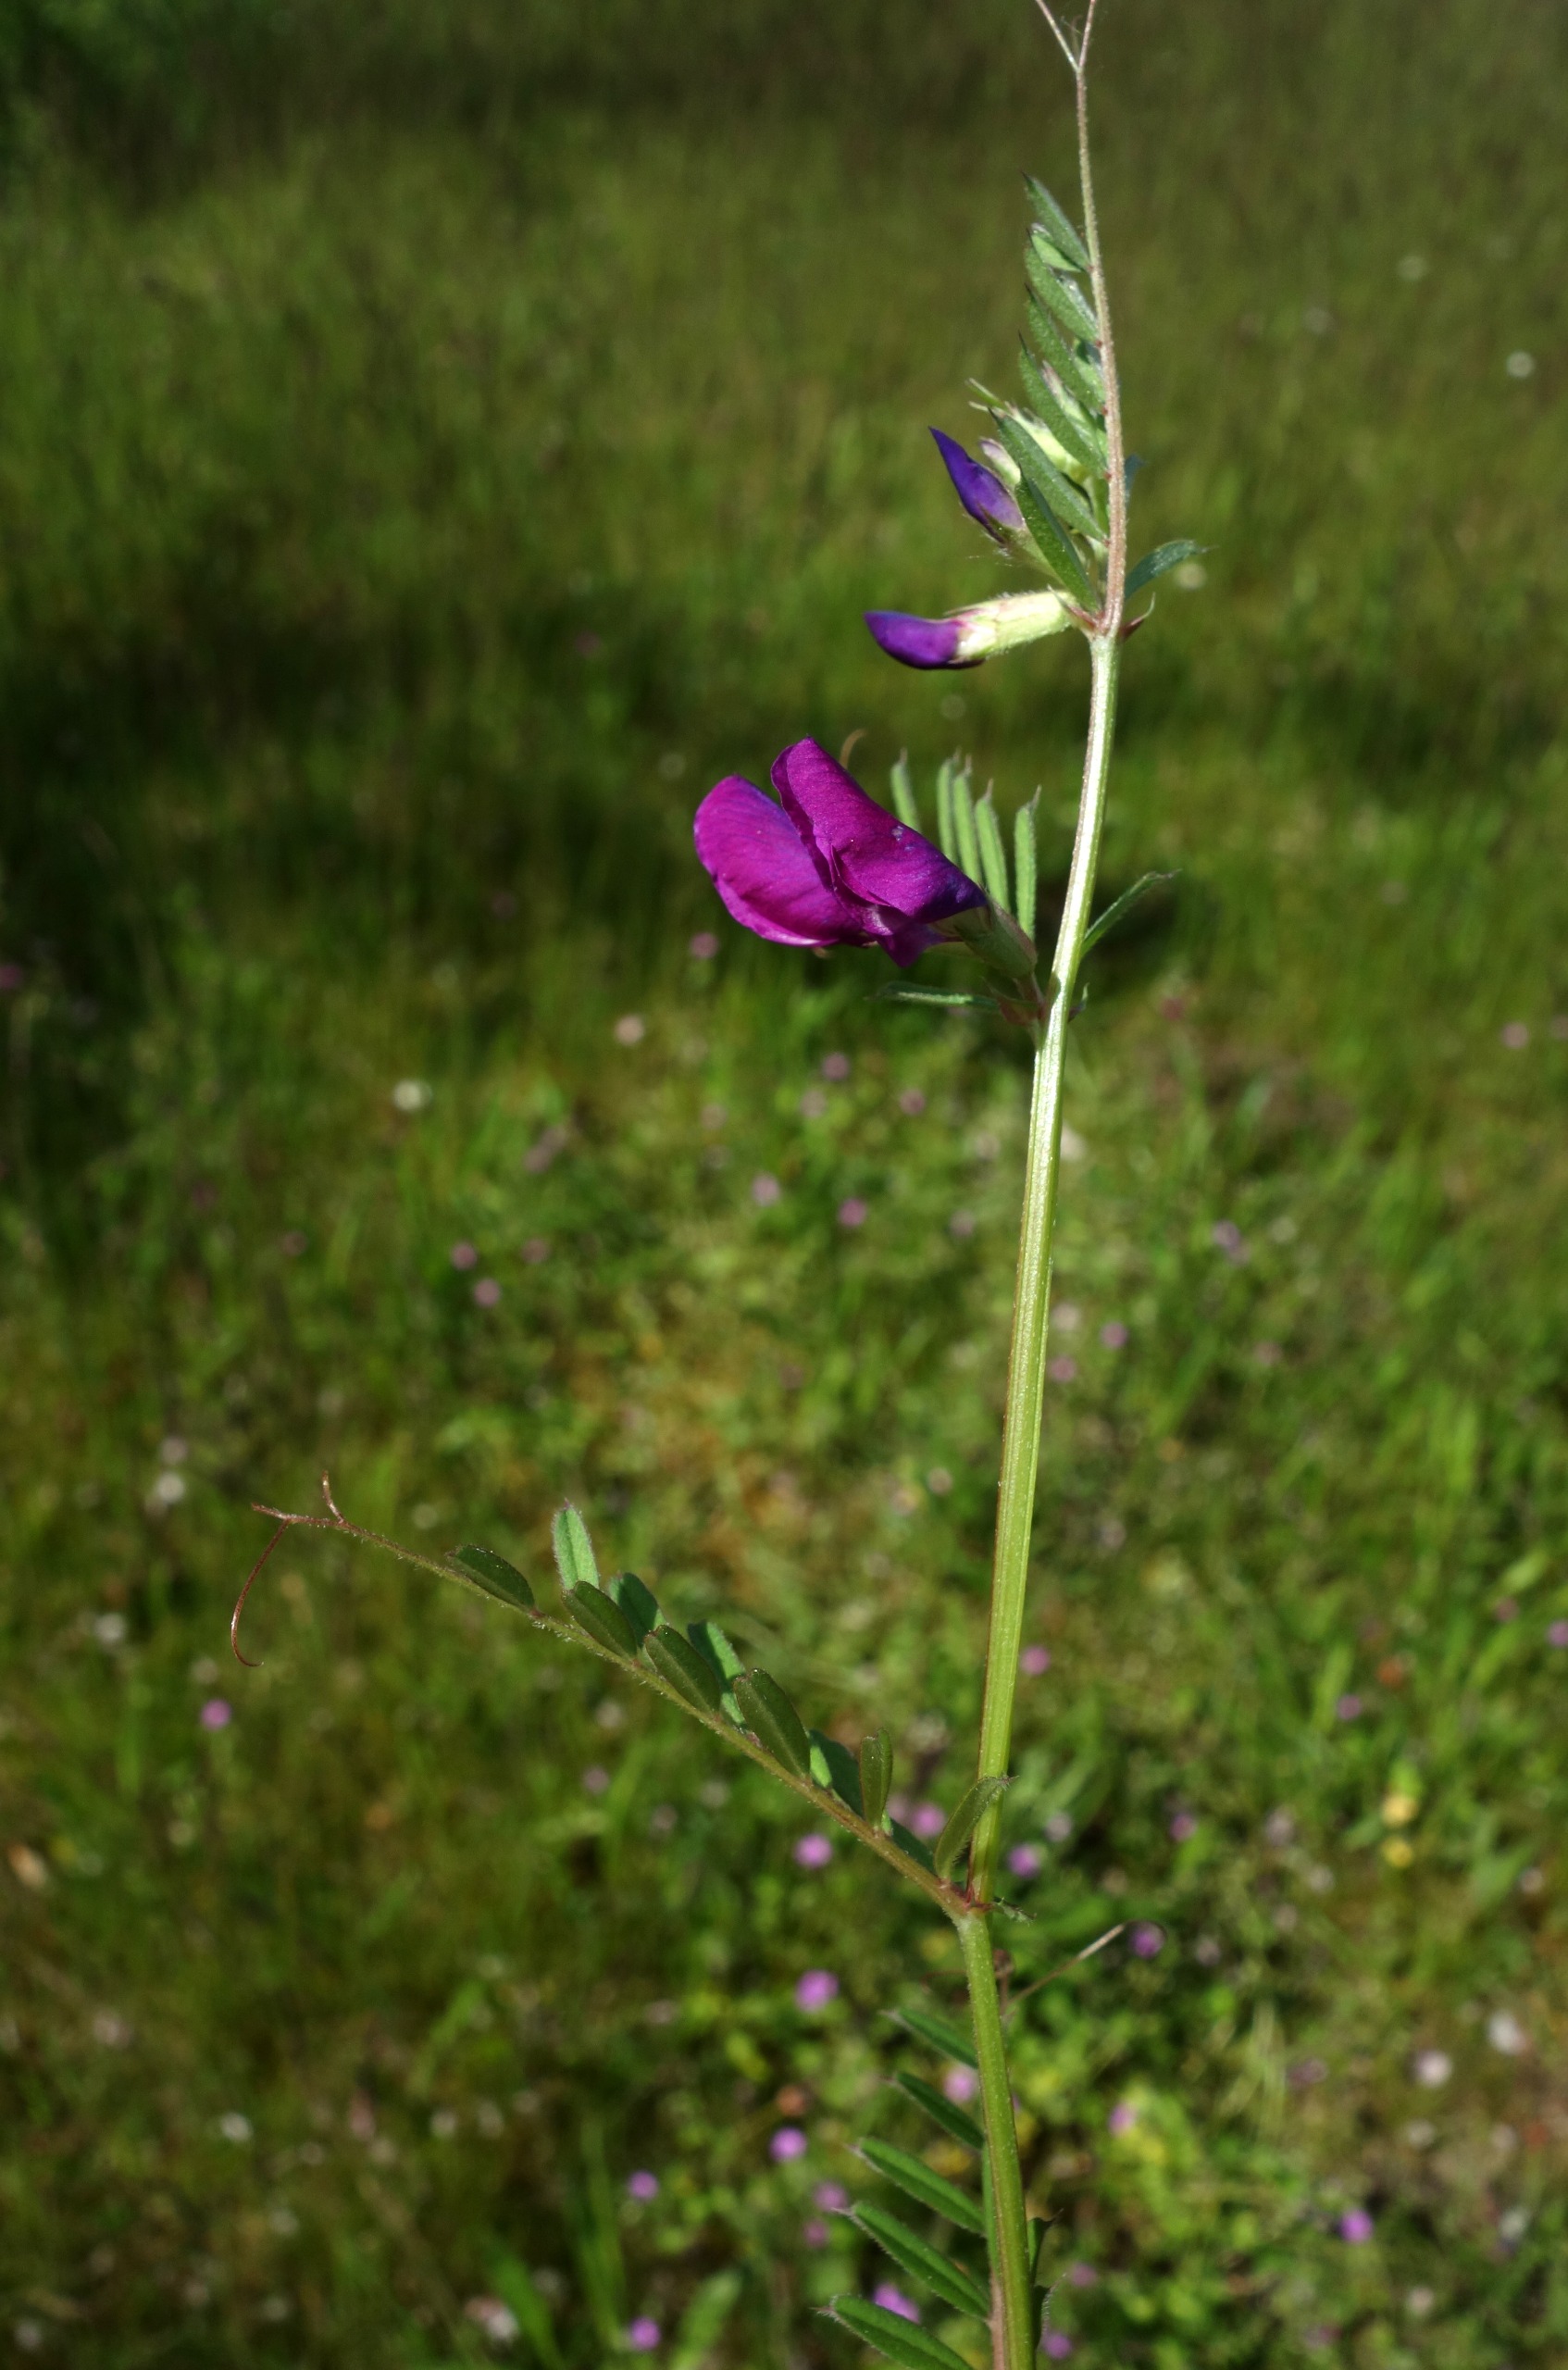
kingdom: Plantae
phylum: Tracheophyta
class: Magnoliopsida
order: Fabales
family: Fabaceae
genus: Vicia
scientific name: Vicia sativa
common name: Smalbladet vikke
